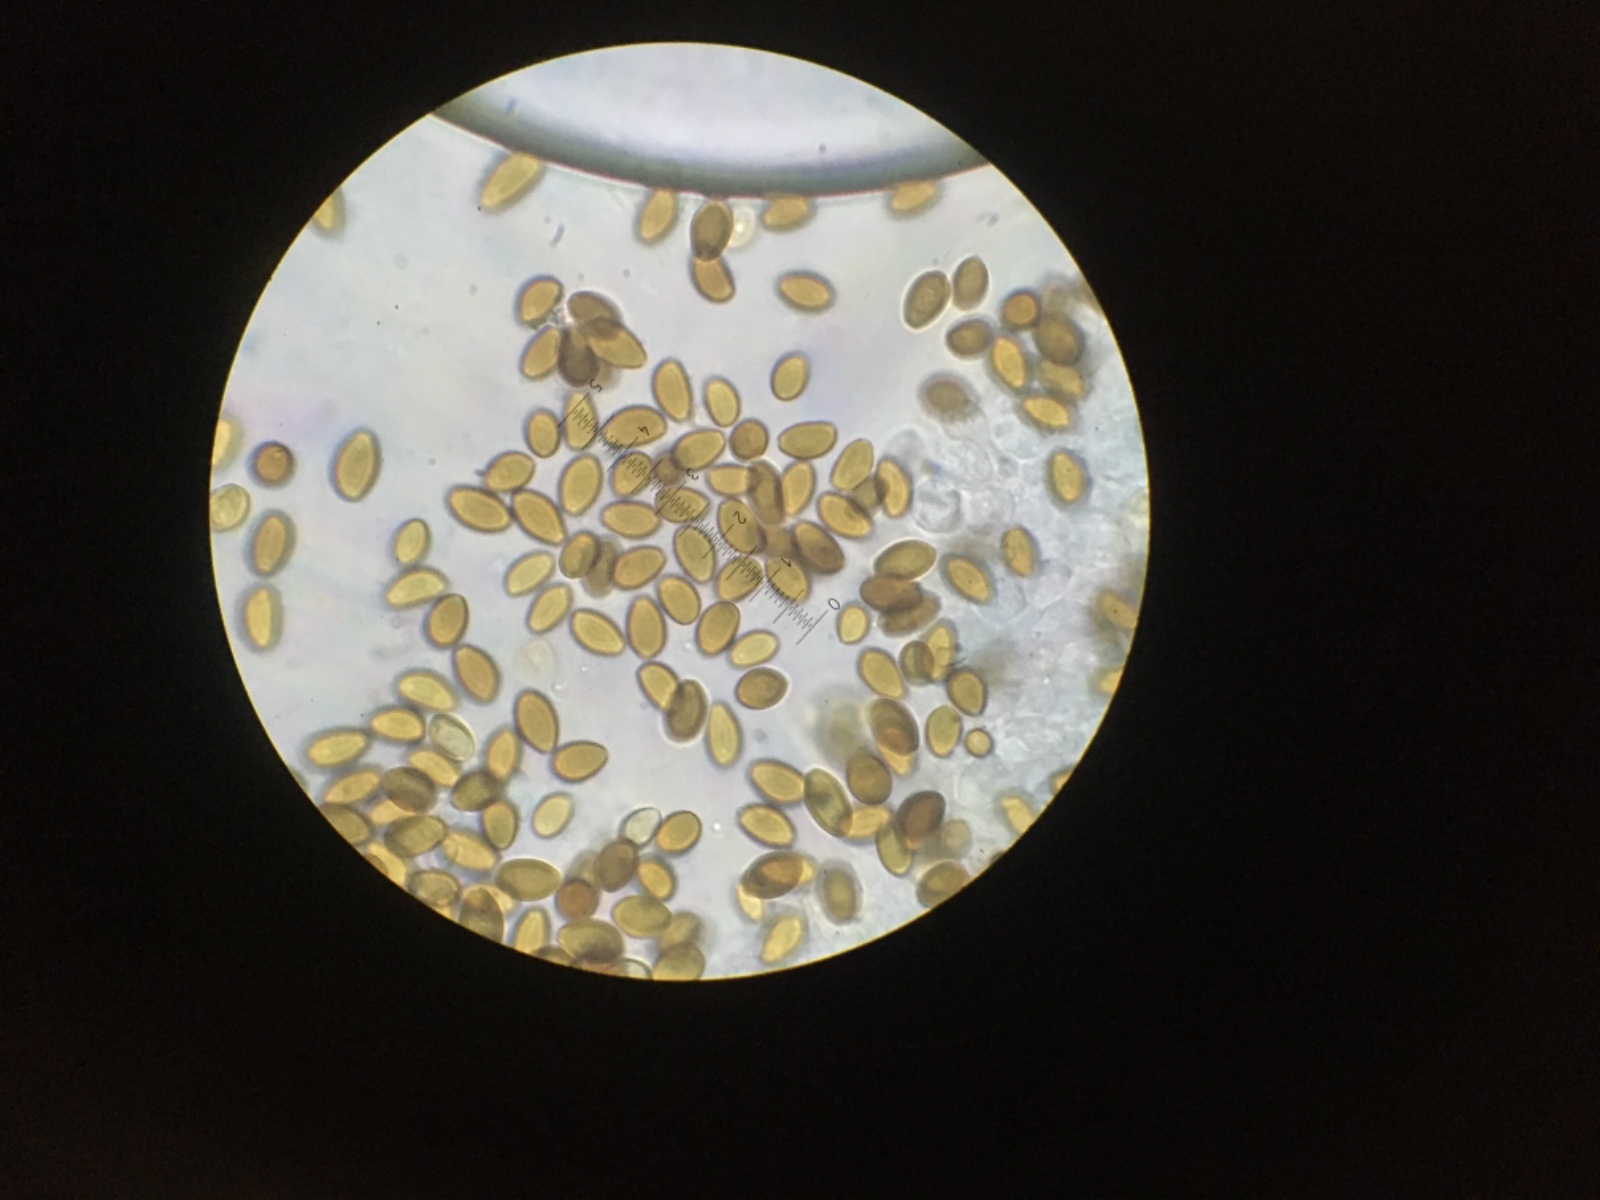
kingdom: Fungi
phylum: Basidiomycota
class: Agaricomycetes
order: Agaricales
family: Strophariaceae
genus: Stropharia
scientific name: Stropharia rugosoannulata
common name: rødbrun bredblad
